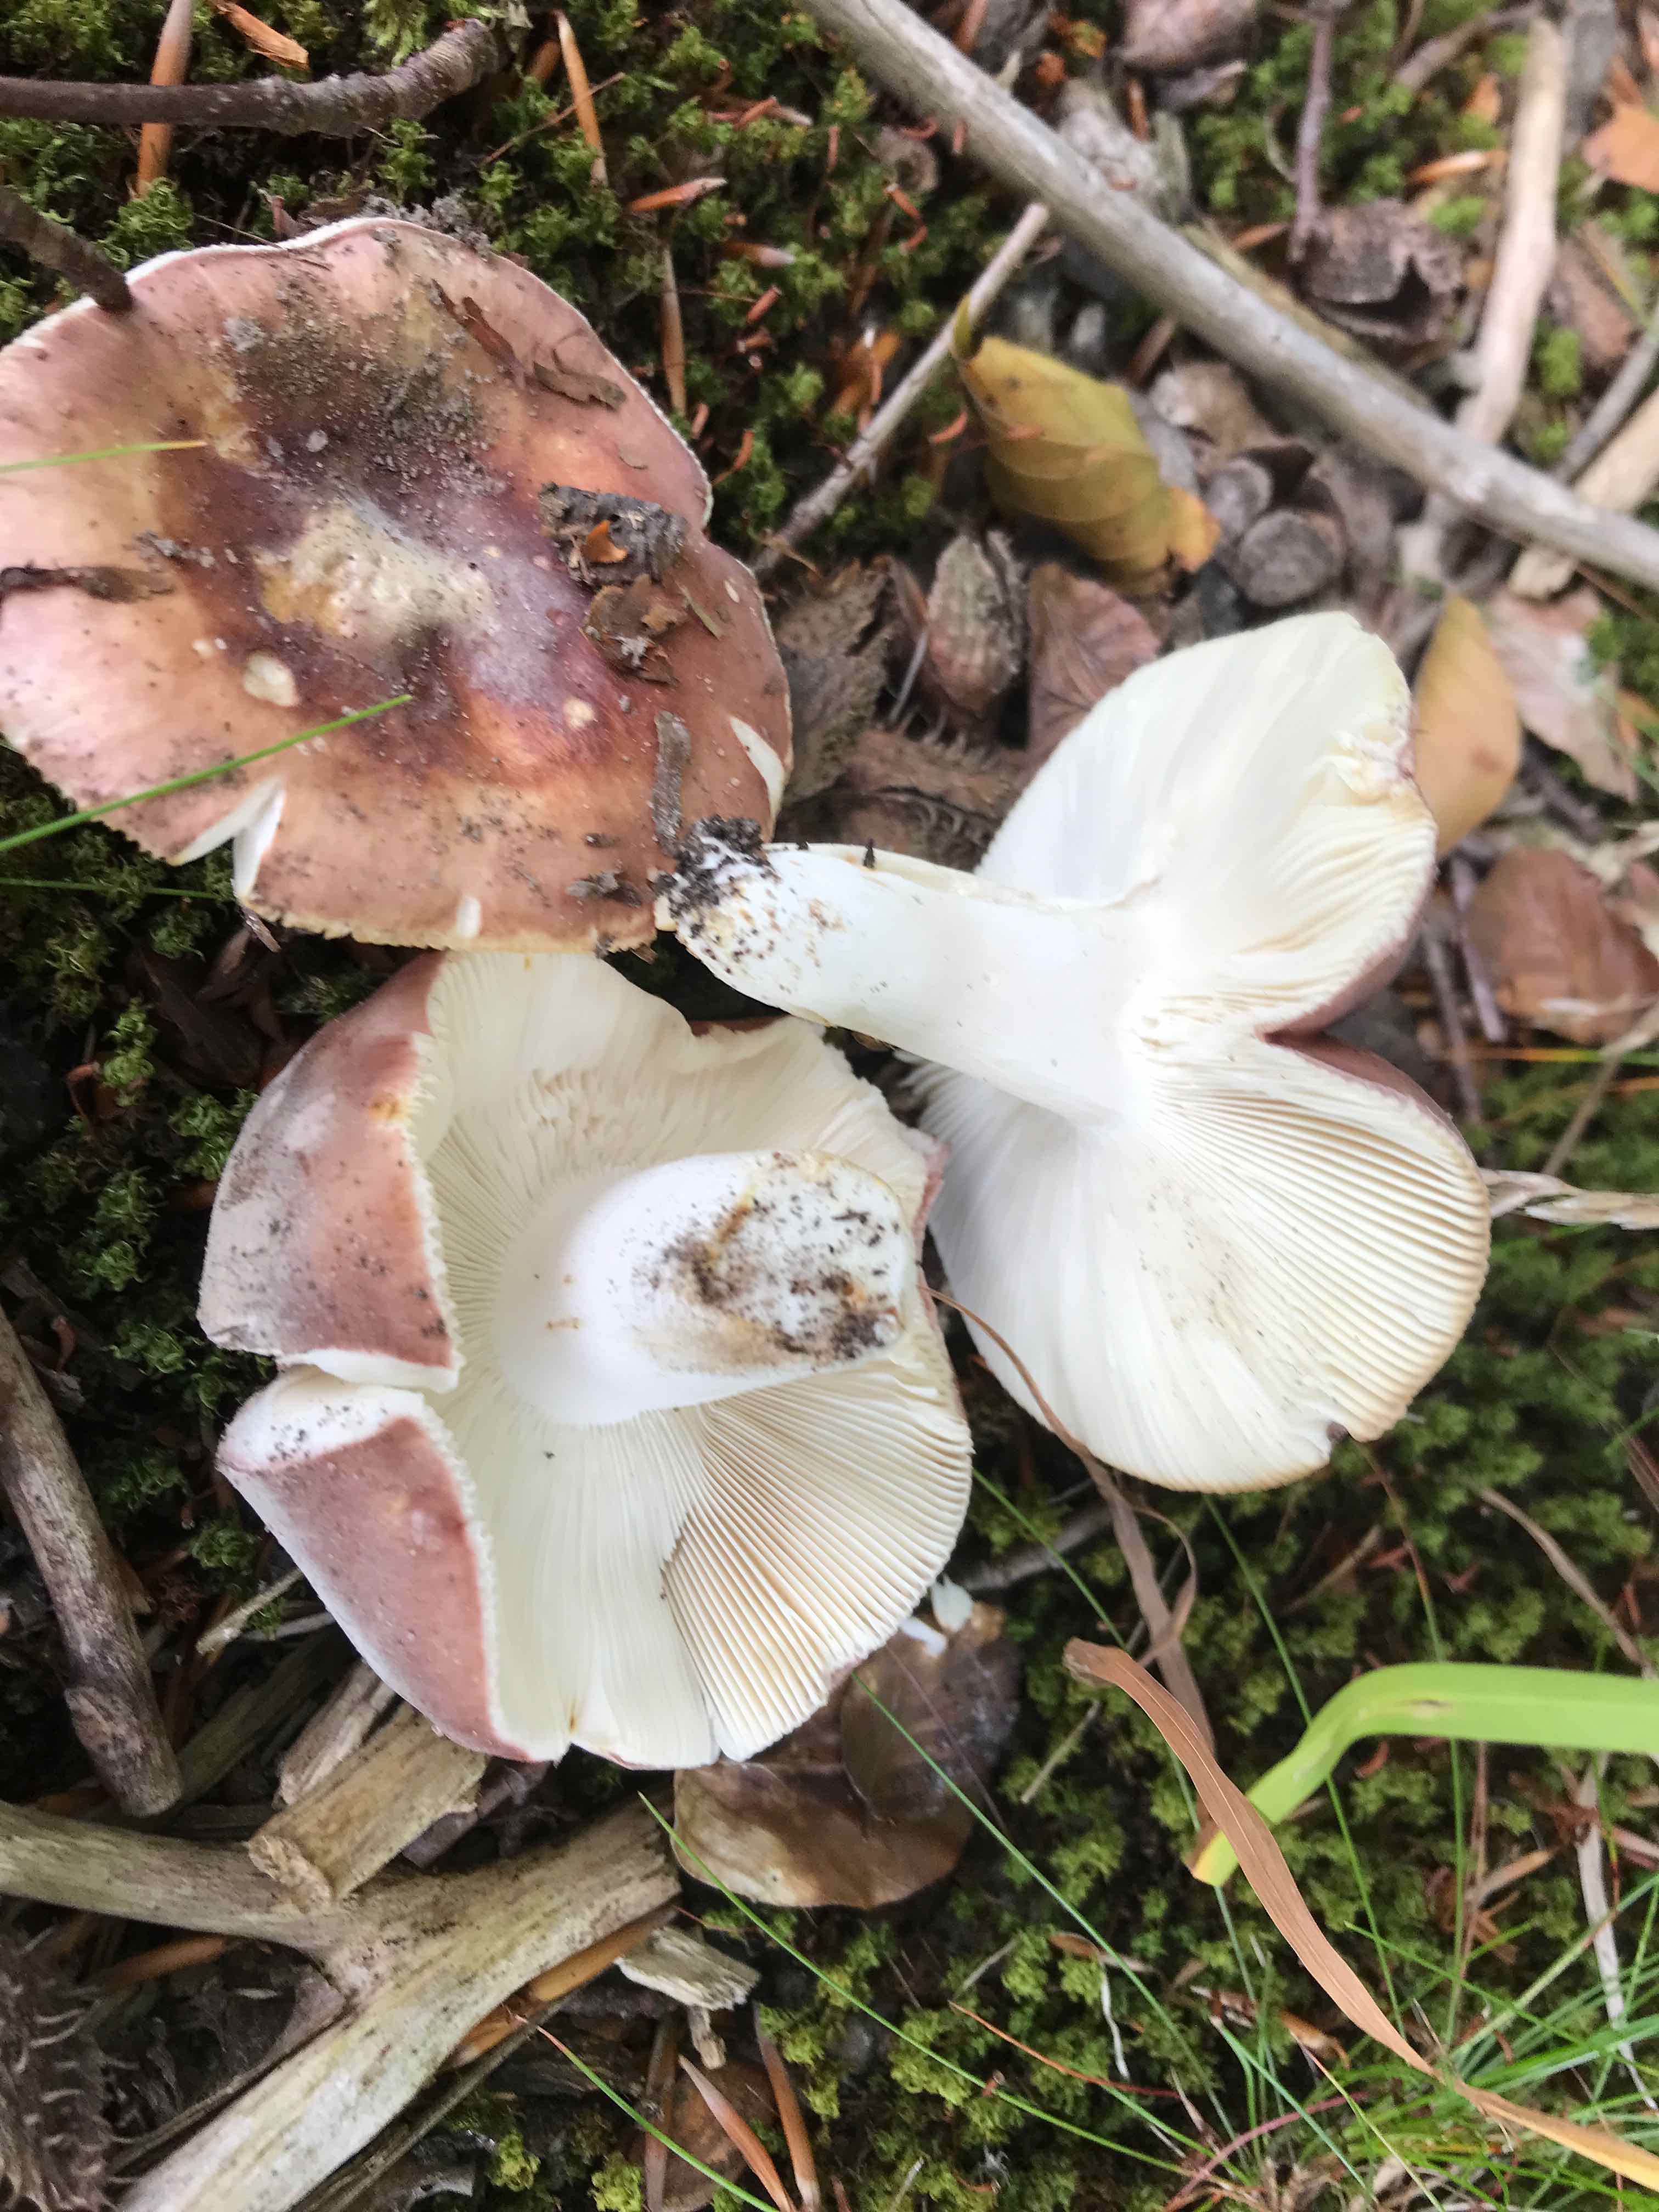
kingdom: Fungi
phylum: Basidiomycota
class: Agaricomycetes
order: Russulales
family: Russulaceae
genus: Russula
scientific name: Russula vesca
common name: spiselig skørhat
